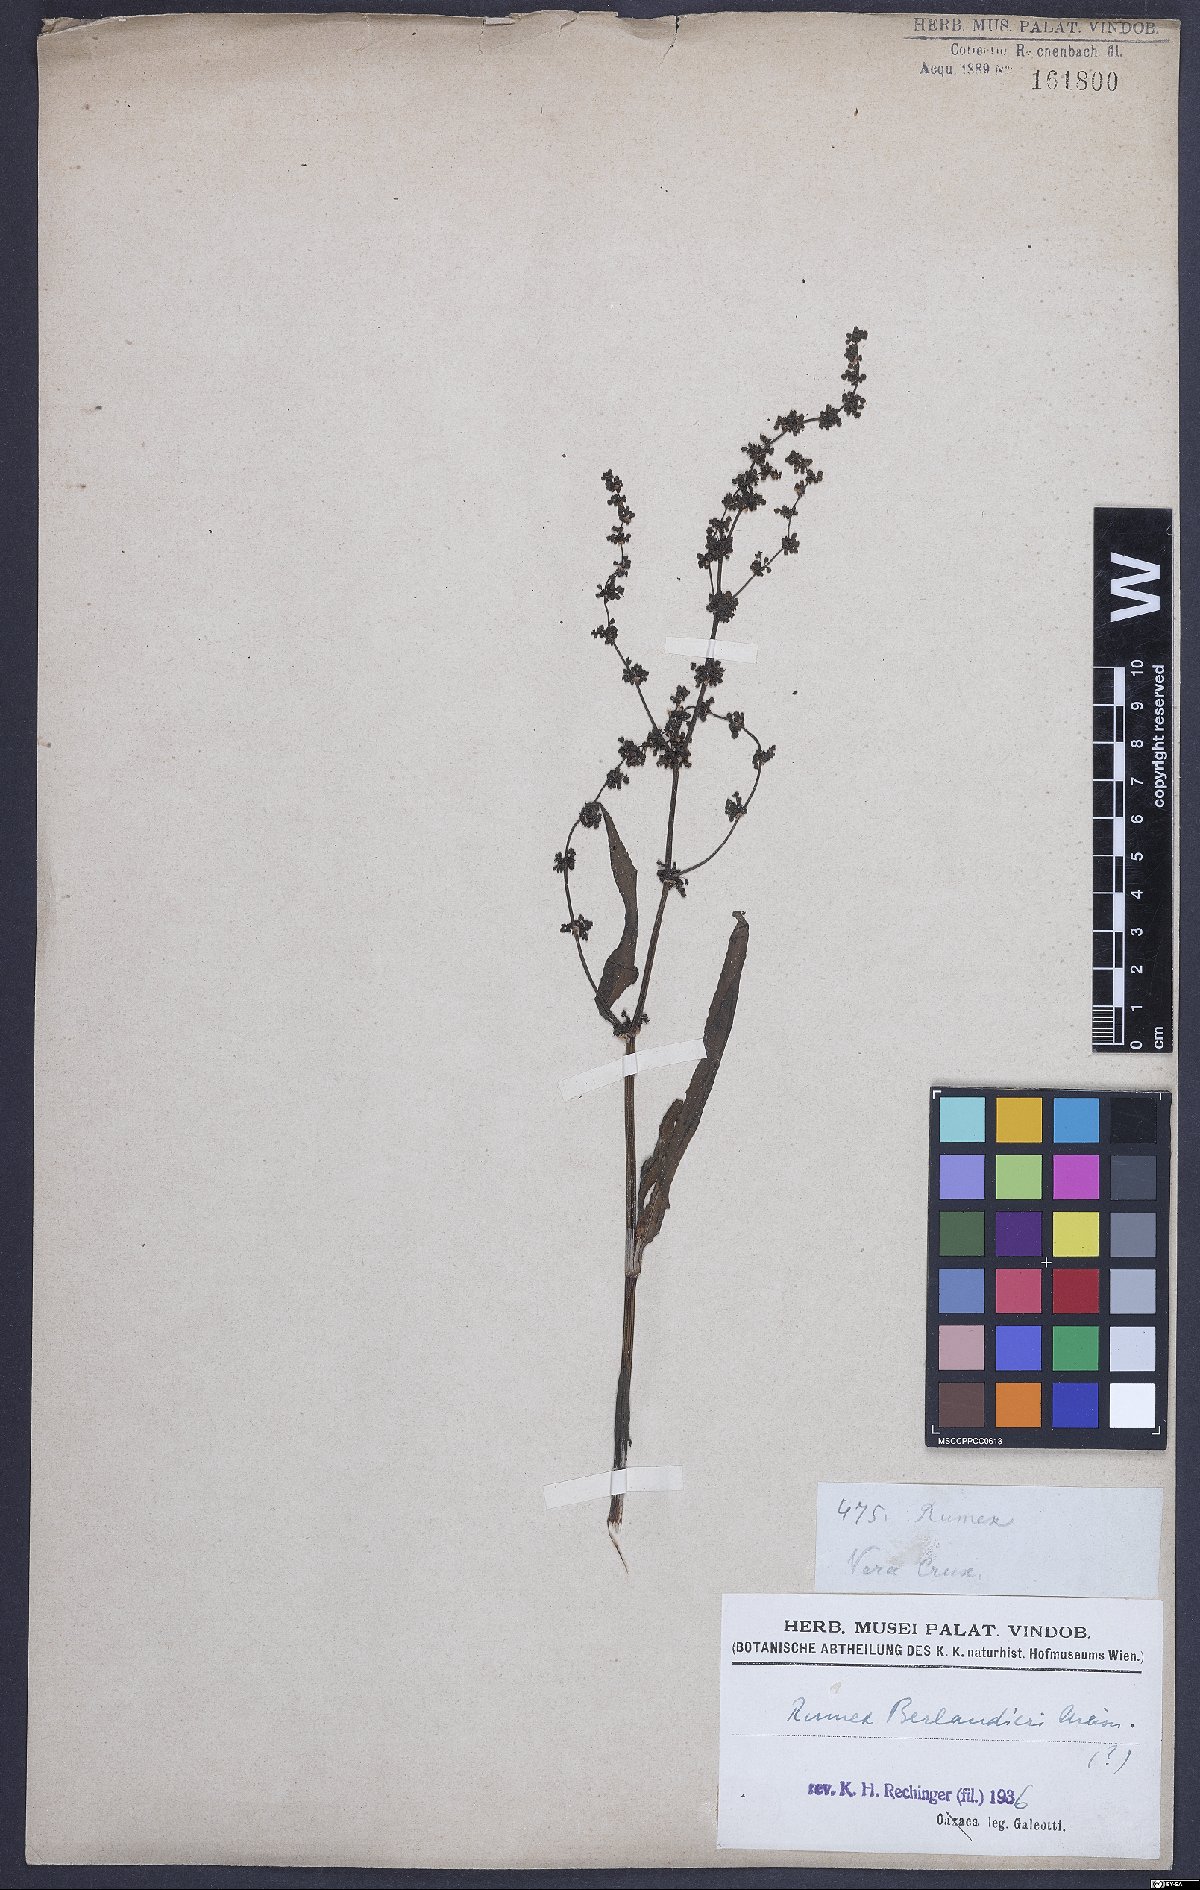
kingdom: Plantae
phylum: Tracheophyta
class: Magnoliopsida
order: Caryophyllales
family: Polygonaceae
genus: Rumex
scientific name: Rumex chrysocarpus
